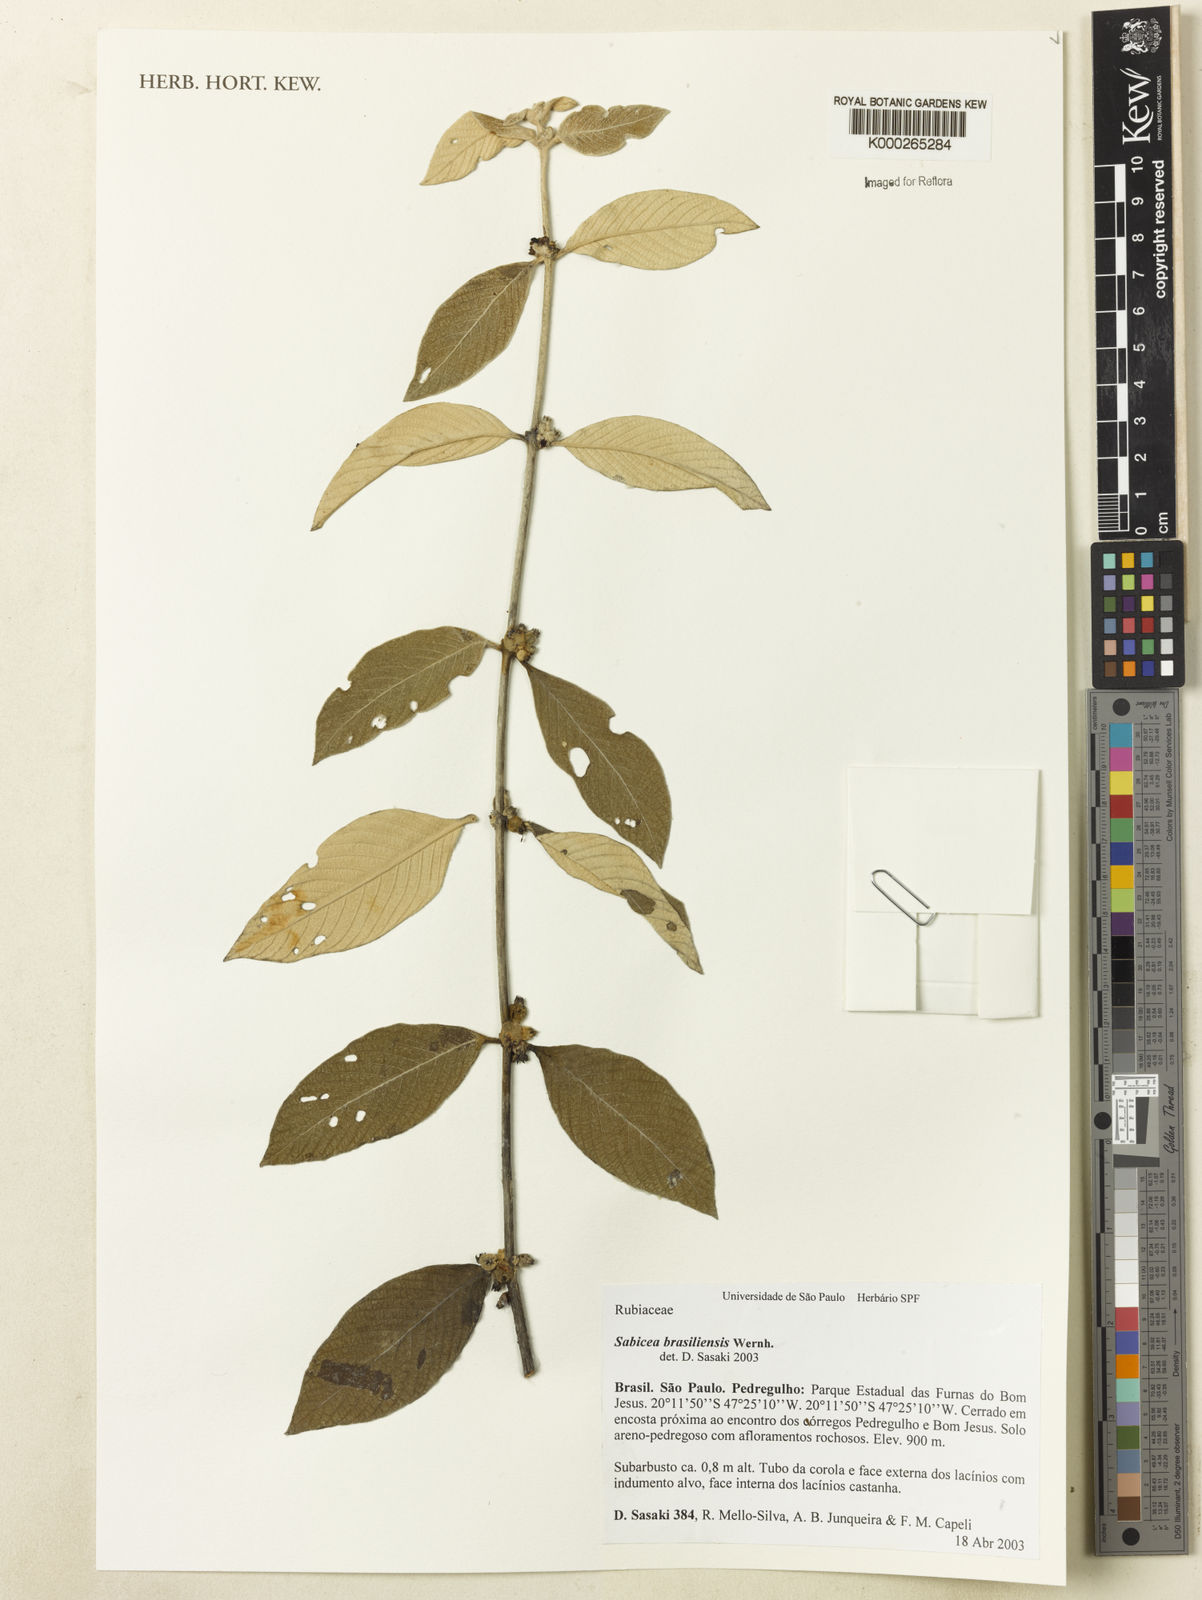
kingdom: Plantae
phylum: Tracheophyta
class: Magnoliopsida
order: Gentianales
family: Rubiaceae
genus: Sabicea
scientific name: Sabicea brasiliensis
